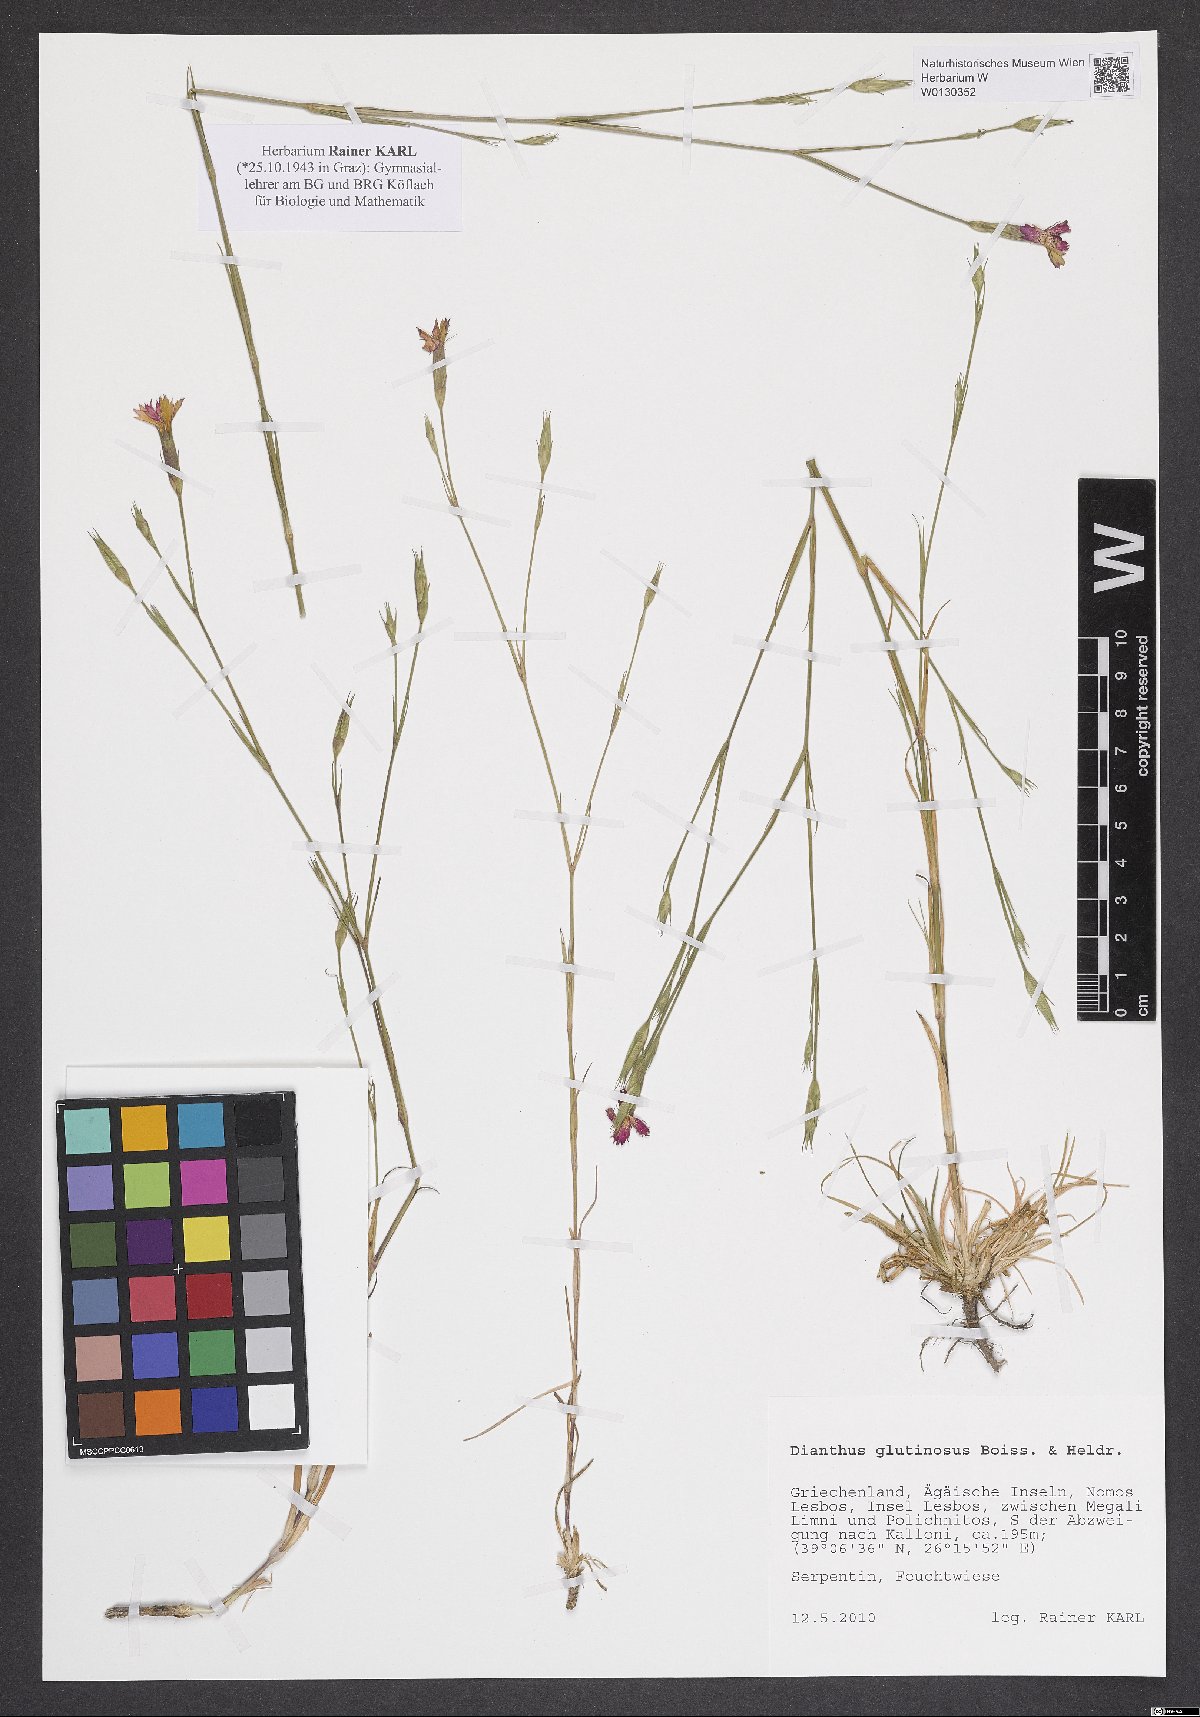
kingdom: Plantae
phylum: Tracheophyta
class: Magnoliopsida
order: Caryophyllales
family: Caryophyllaceae
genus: Dianthus
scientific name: Dianthus glutinosus
